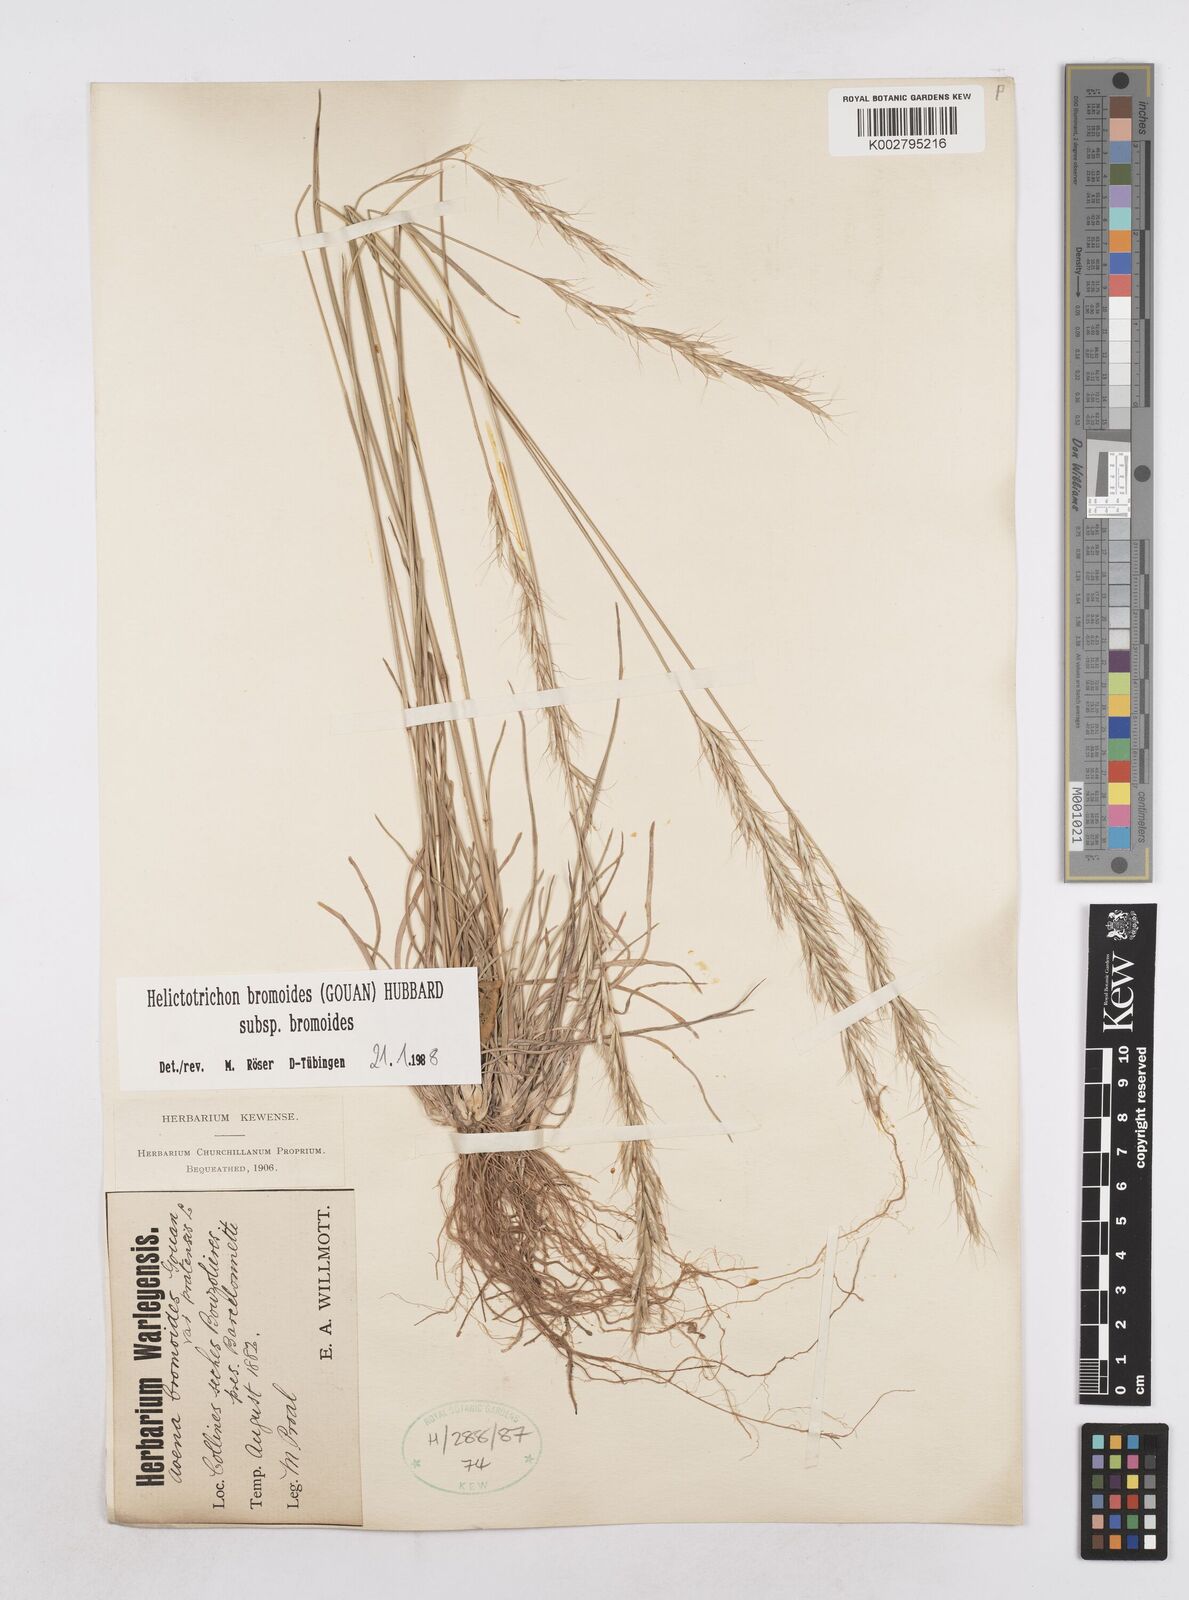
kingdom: Plantae
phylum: Tracheophyta
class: Liliopsida
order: Poales
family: Poaceae
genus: Helictochloa
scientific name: Helictochloa bromoides
